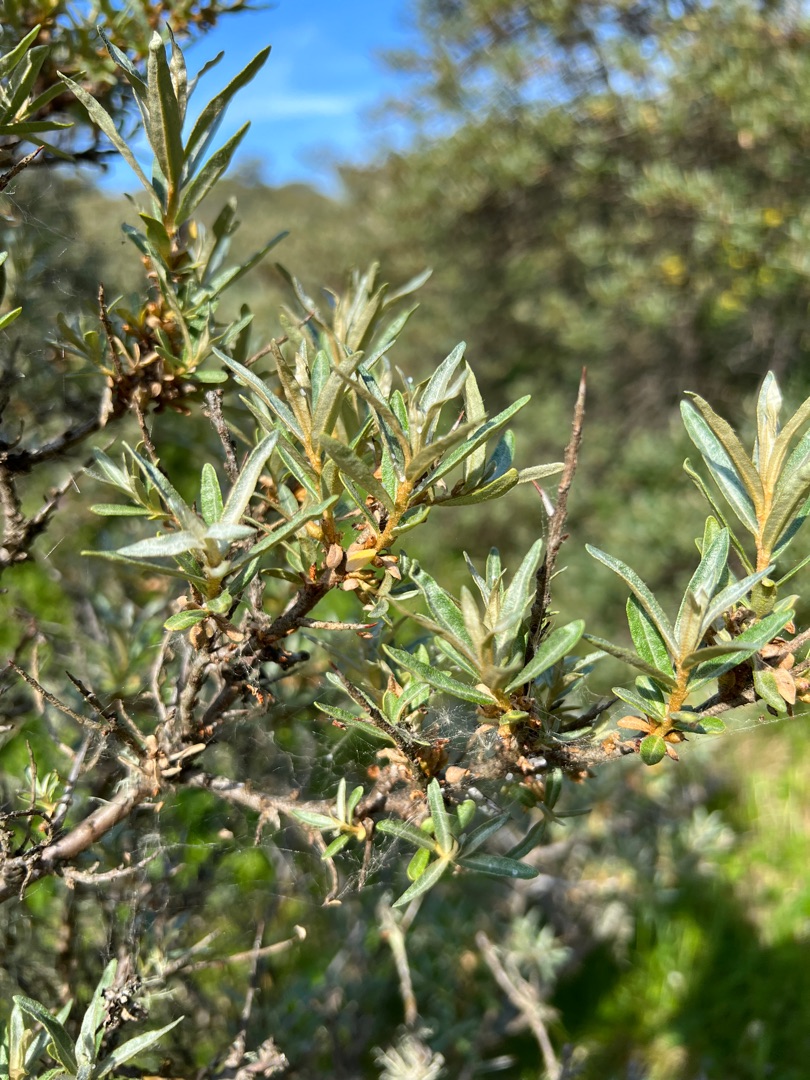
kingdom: Plantae
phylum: Tracheophyta
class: Magnoliopsida
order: Rosales
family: Elaeagnaceae
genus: Hippophae
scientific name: Hippophae rhamnoides
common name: Havtorn
